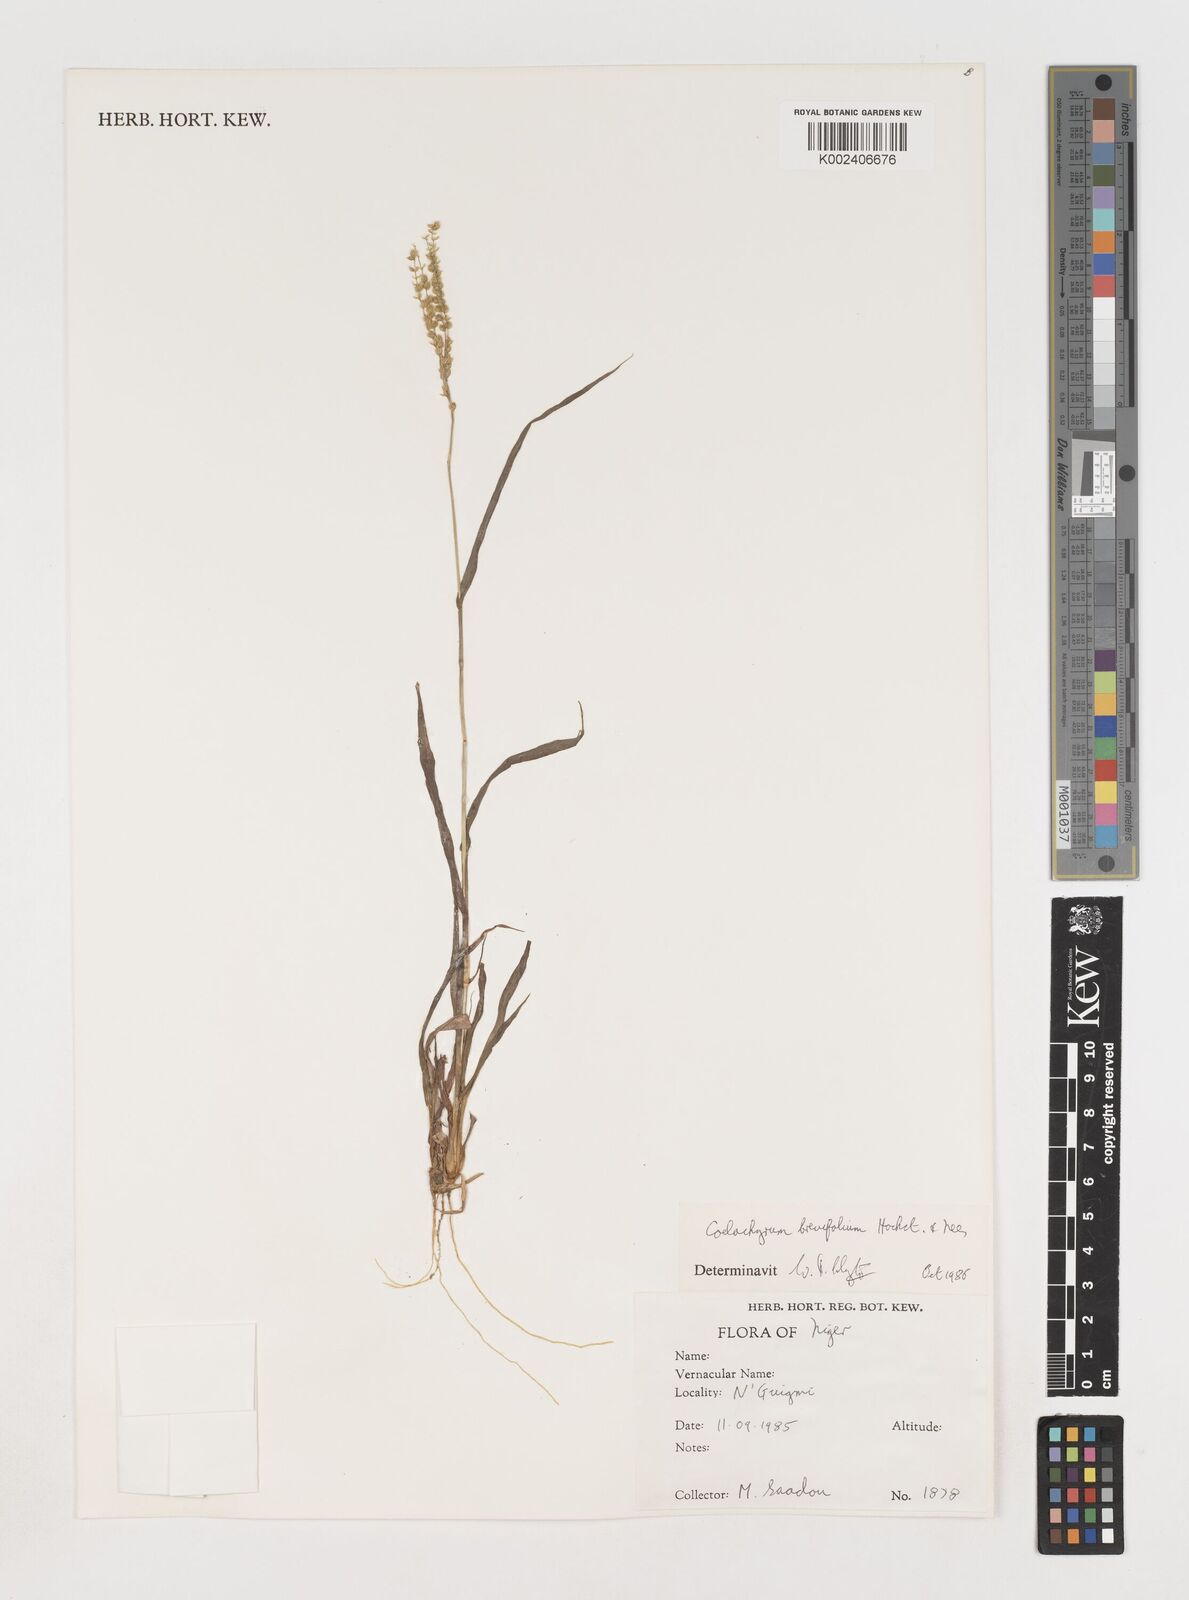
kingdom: Plantae
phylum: Tracheophyta
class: Liliopsida
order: Poales
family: Poaceae
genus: Coelachyrum
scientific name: Coelachyrum brevifolium
